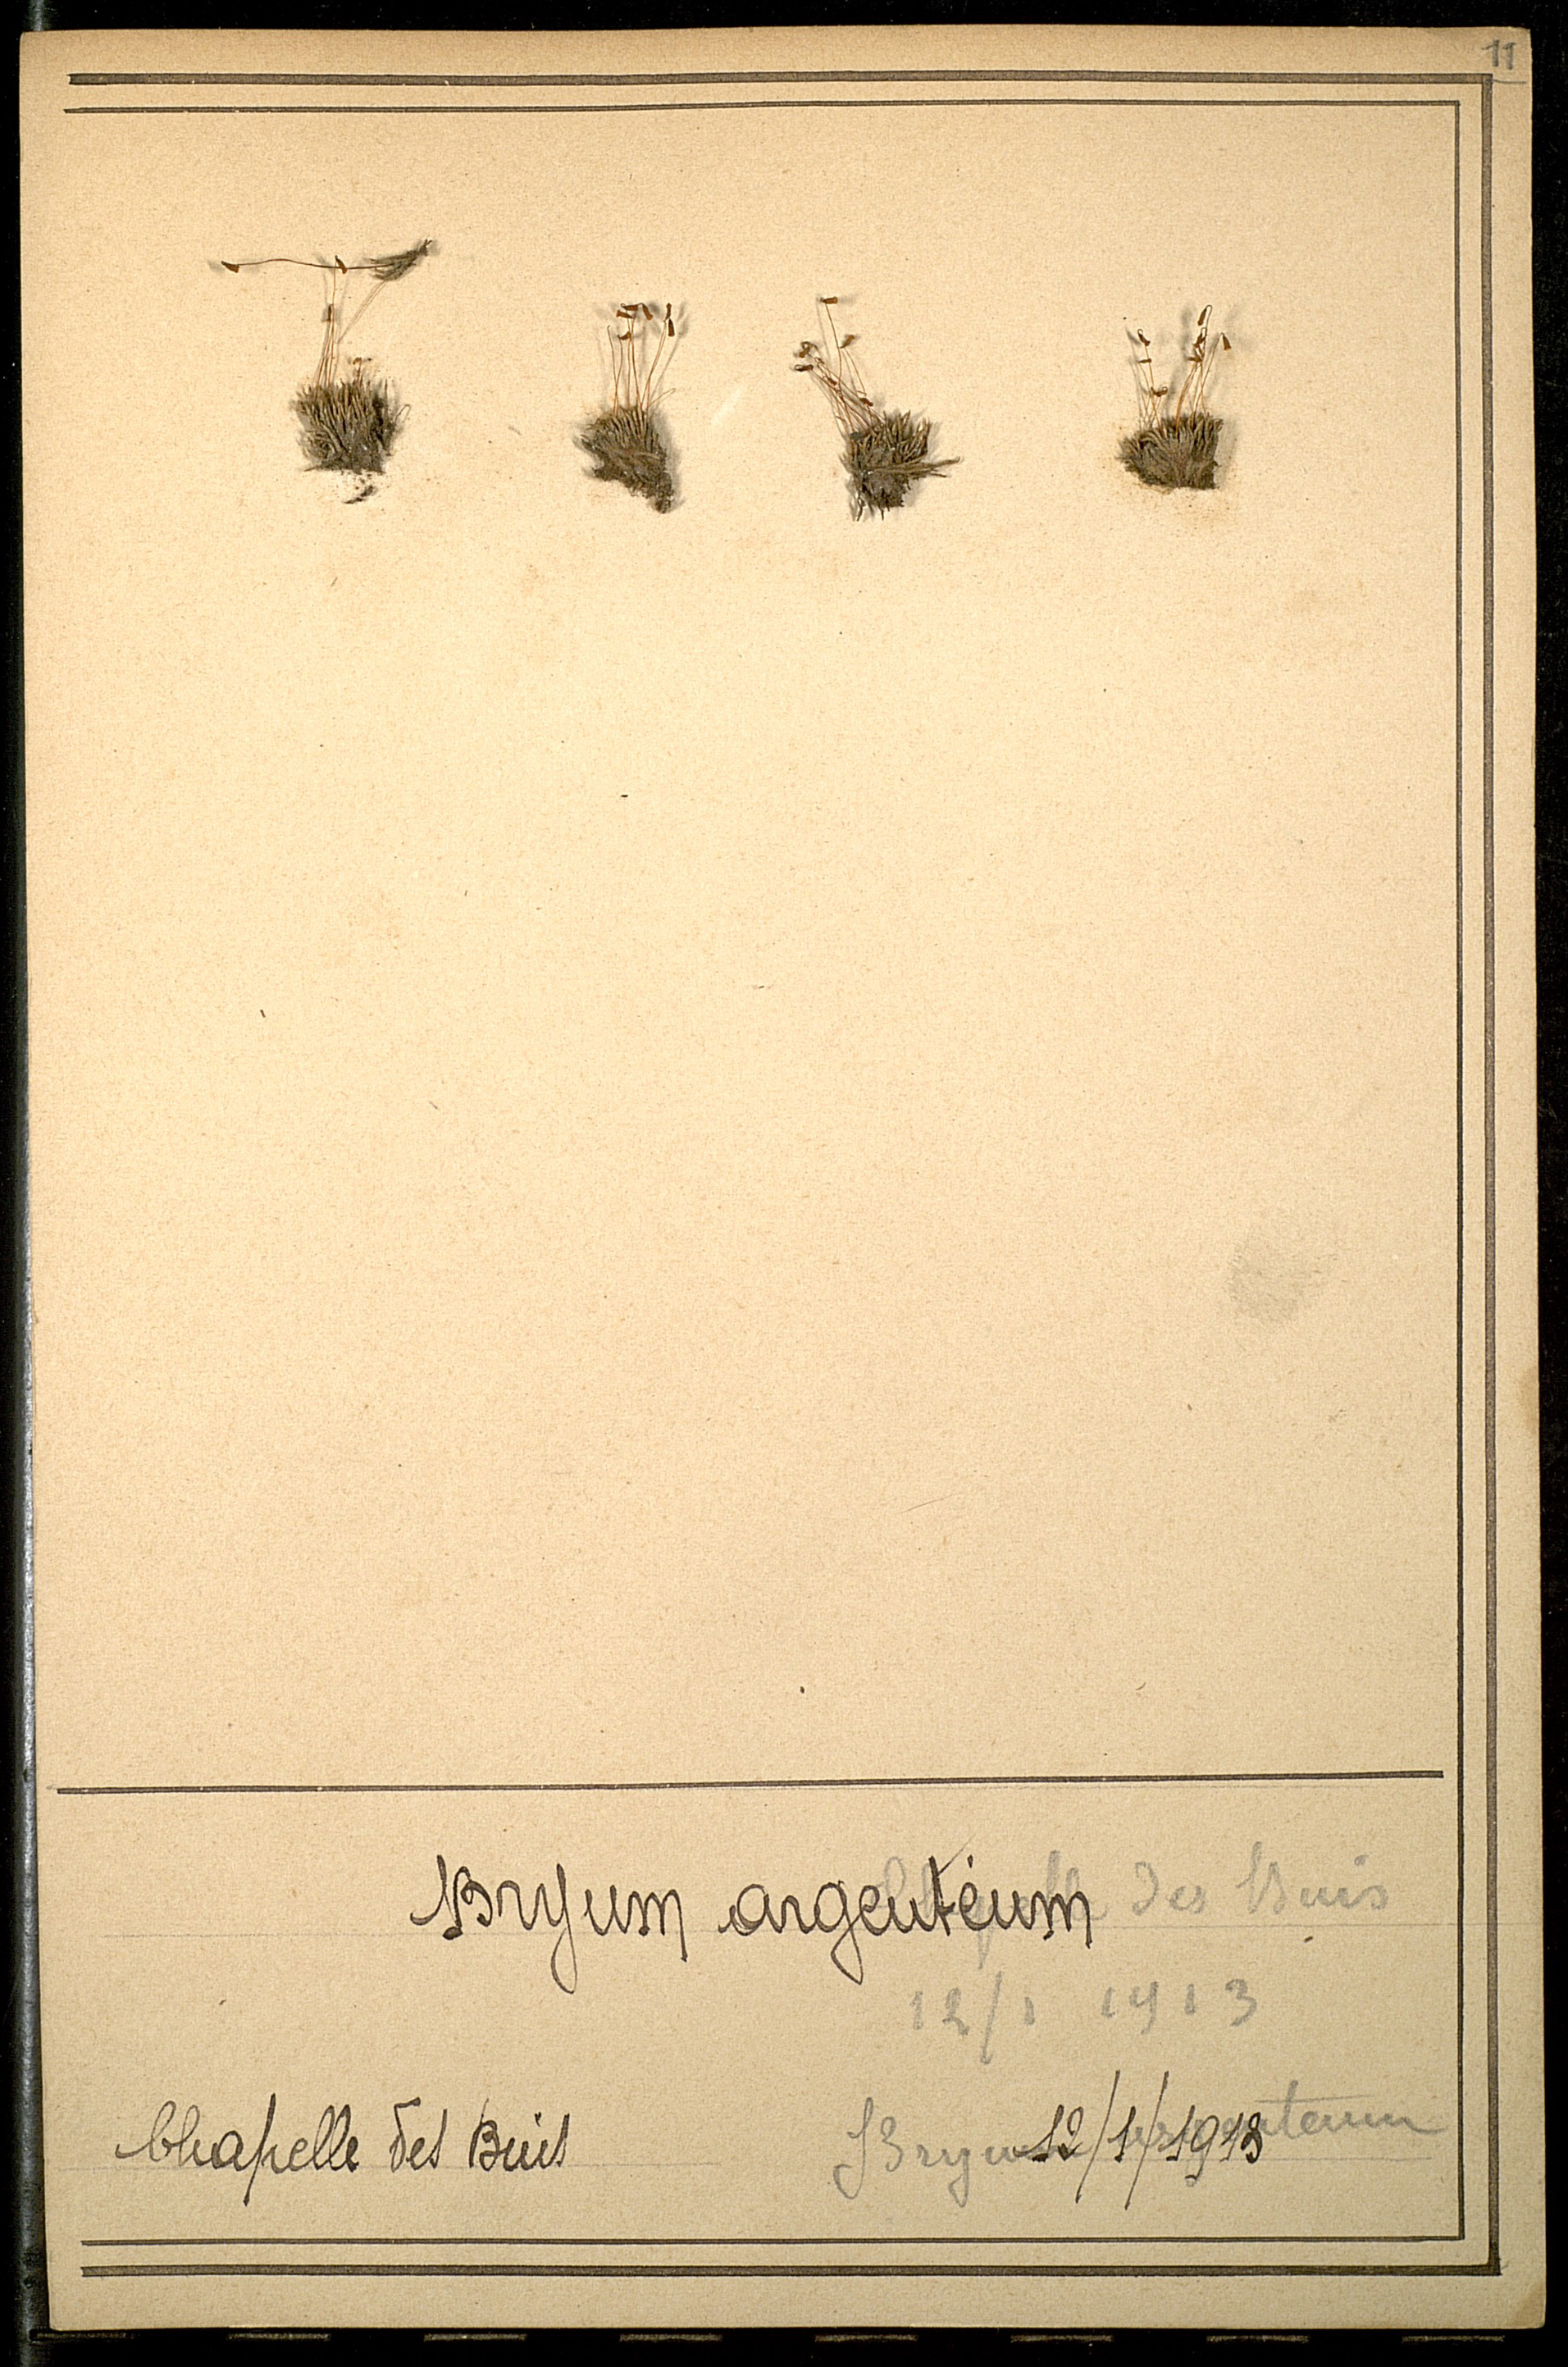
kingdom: Plantae
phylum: Bryophyta
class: Bryopsida
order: Bryales
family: Bryaceae
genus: Bryum
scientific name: Bryum argenteum
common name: Silver-moss
